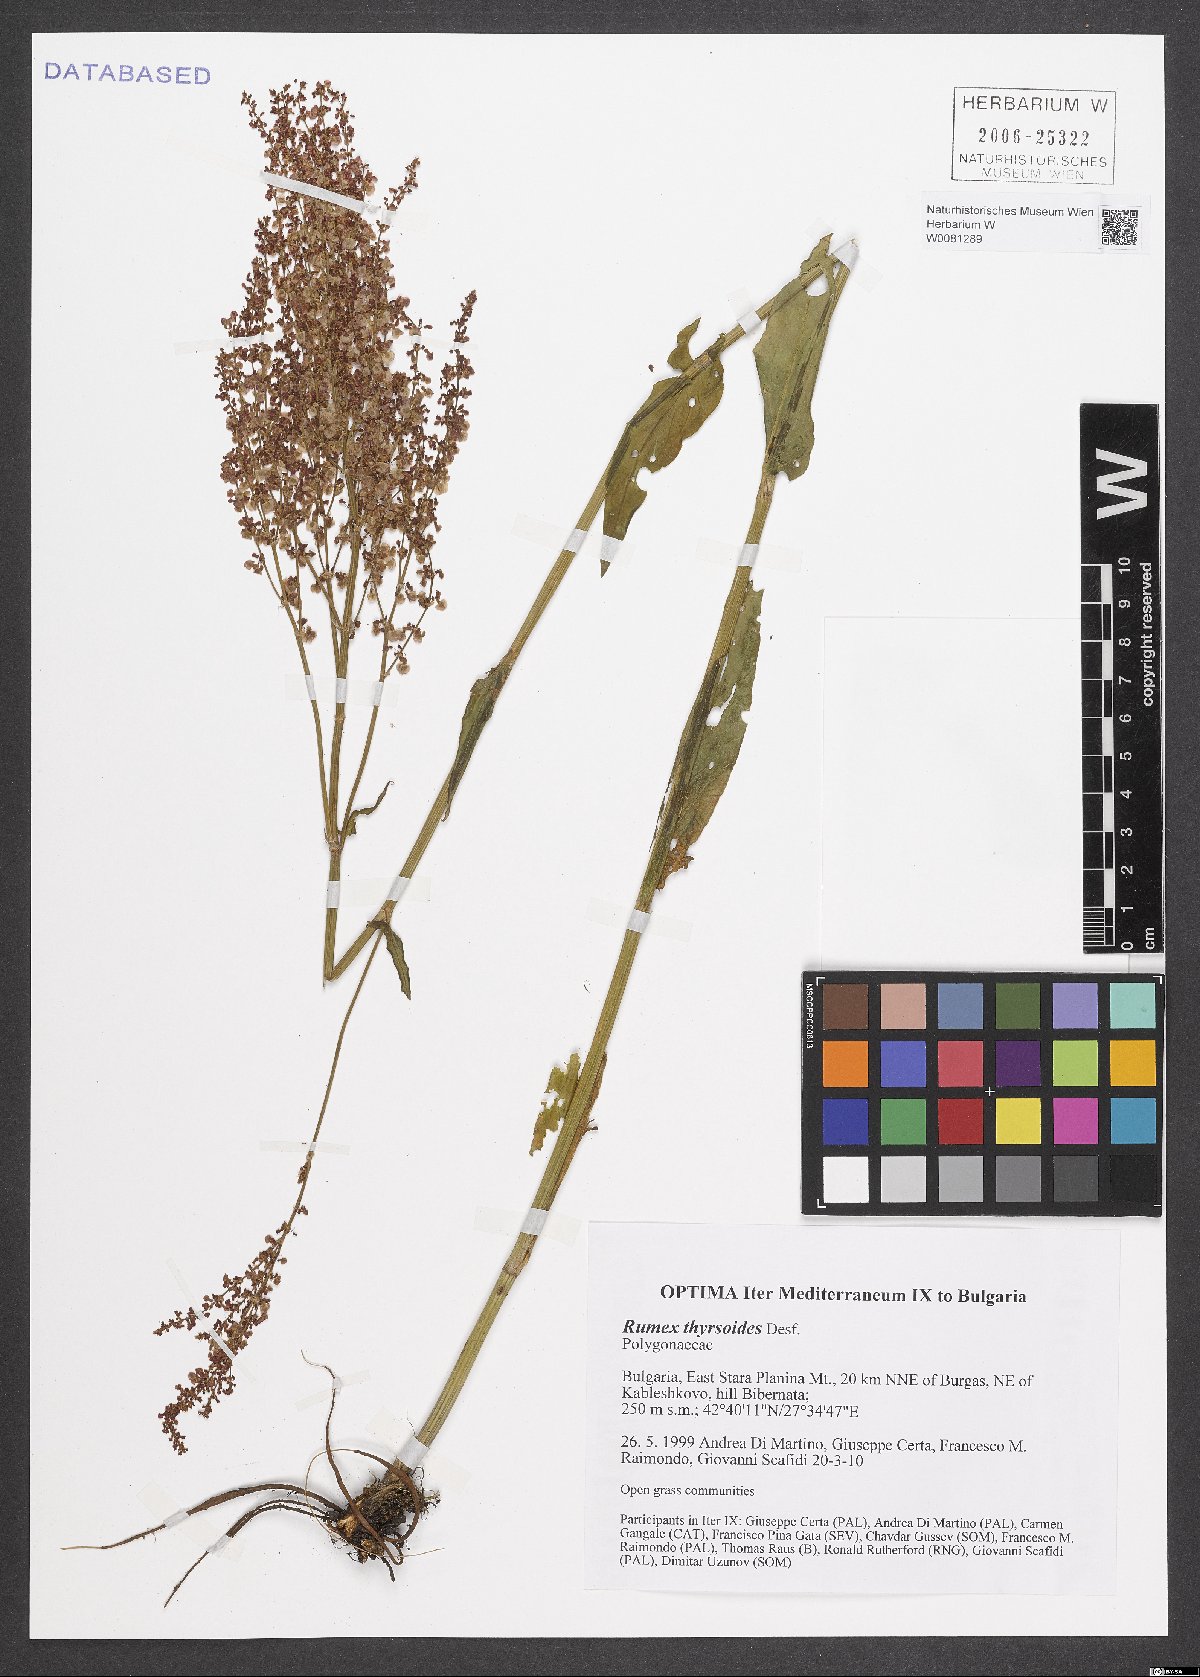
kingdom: Plantae
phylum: Tracheophyta
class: Magnoliopsida
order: Caryophyllales
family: Polygonaceae
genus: Rumex
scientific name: Rumex thyrsoides
